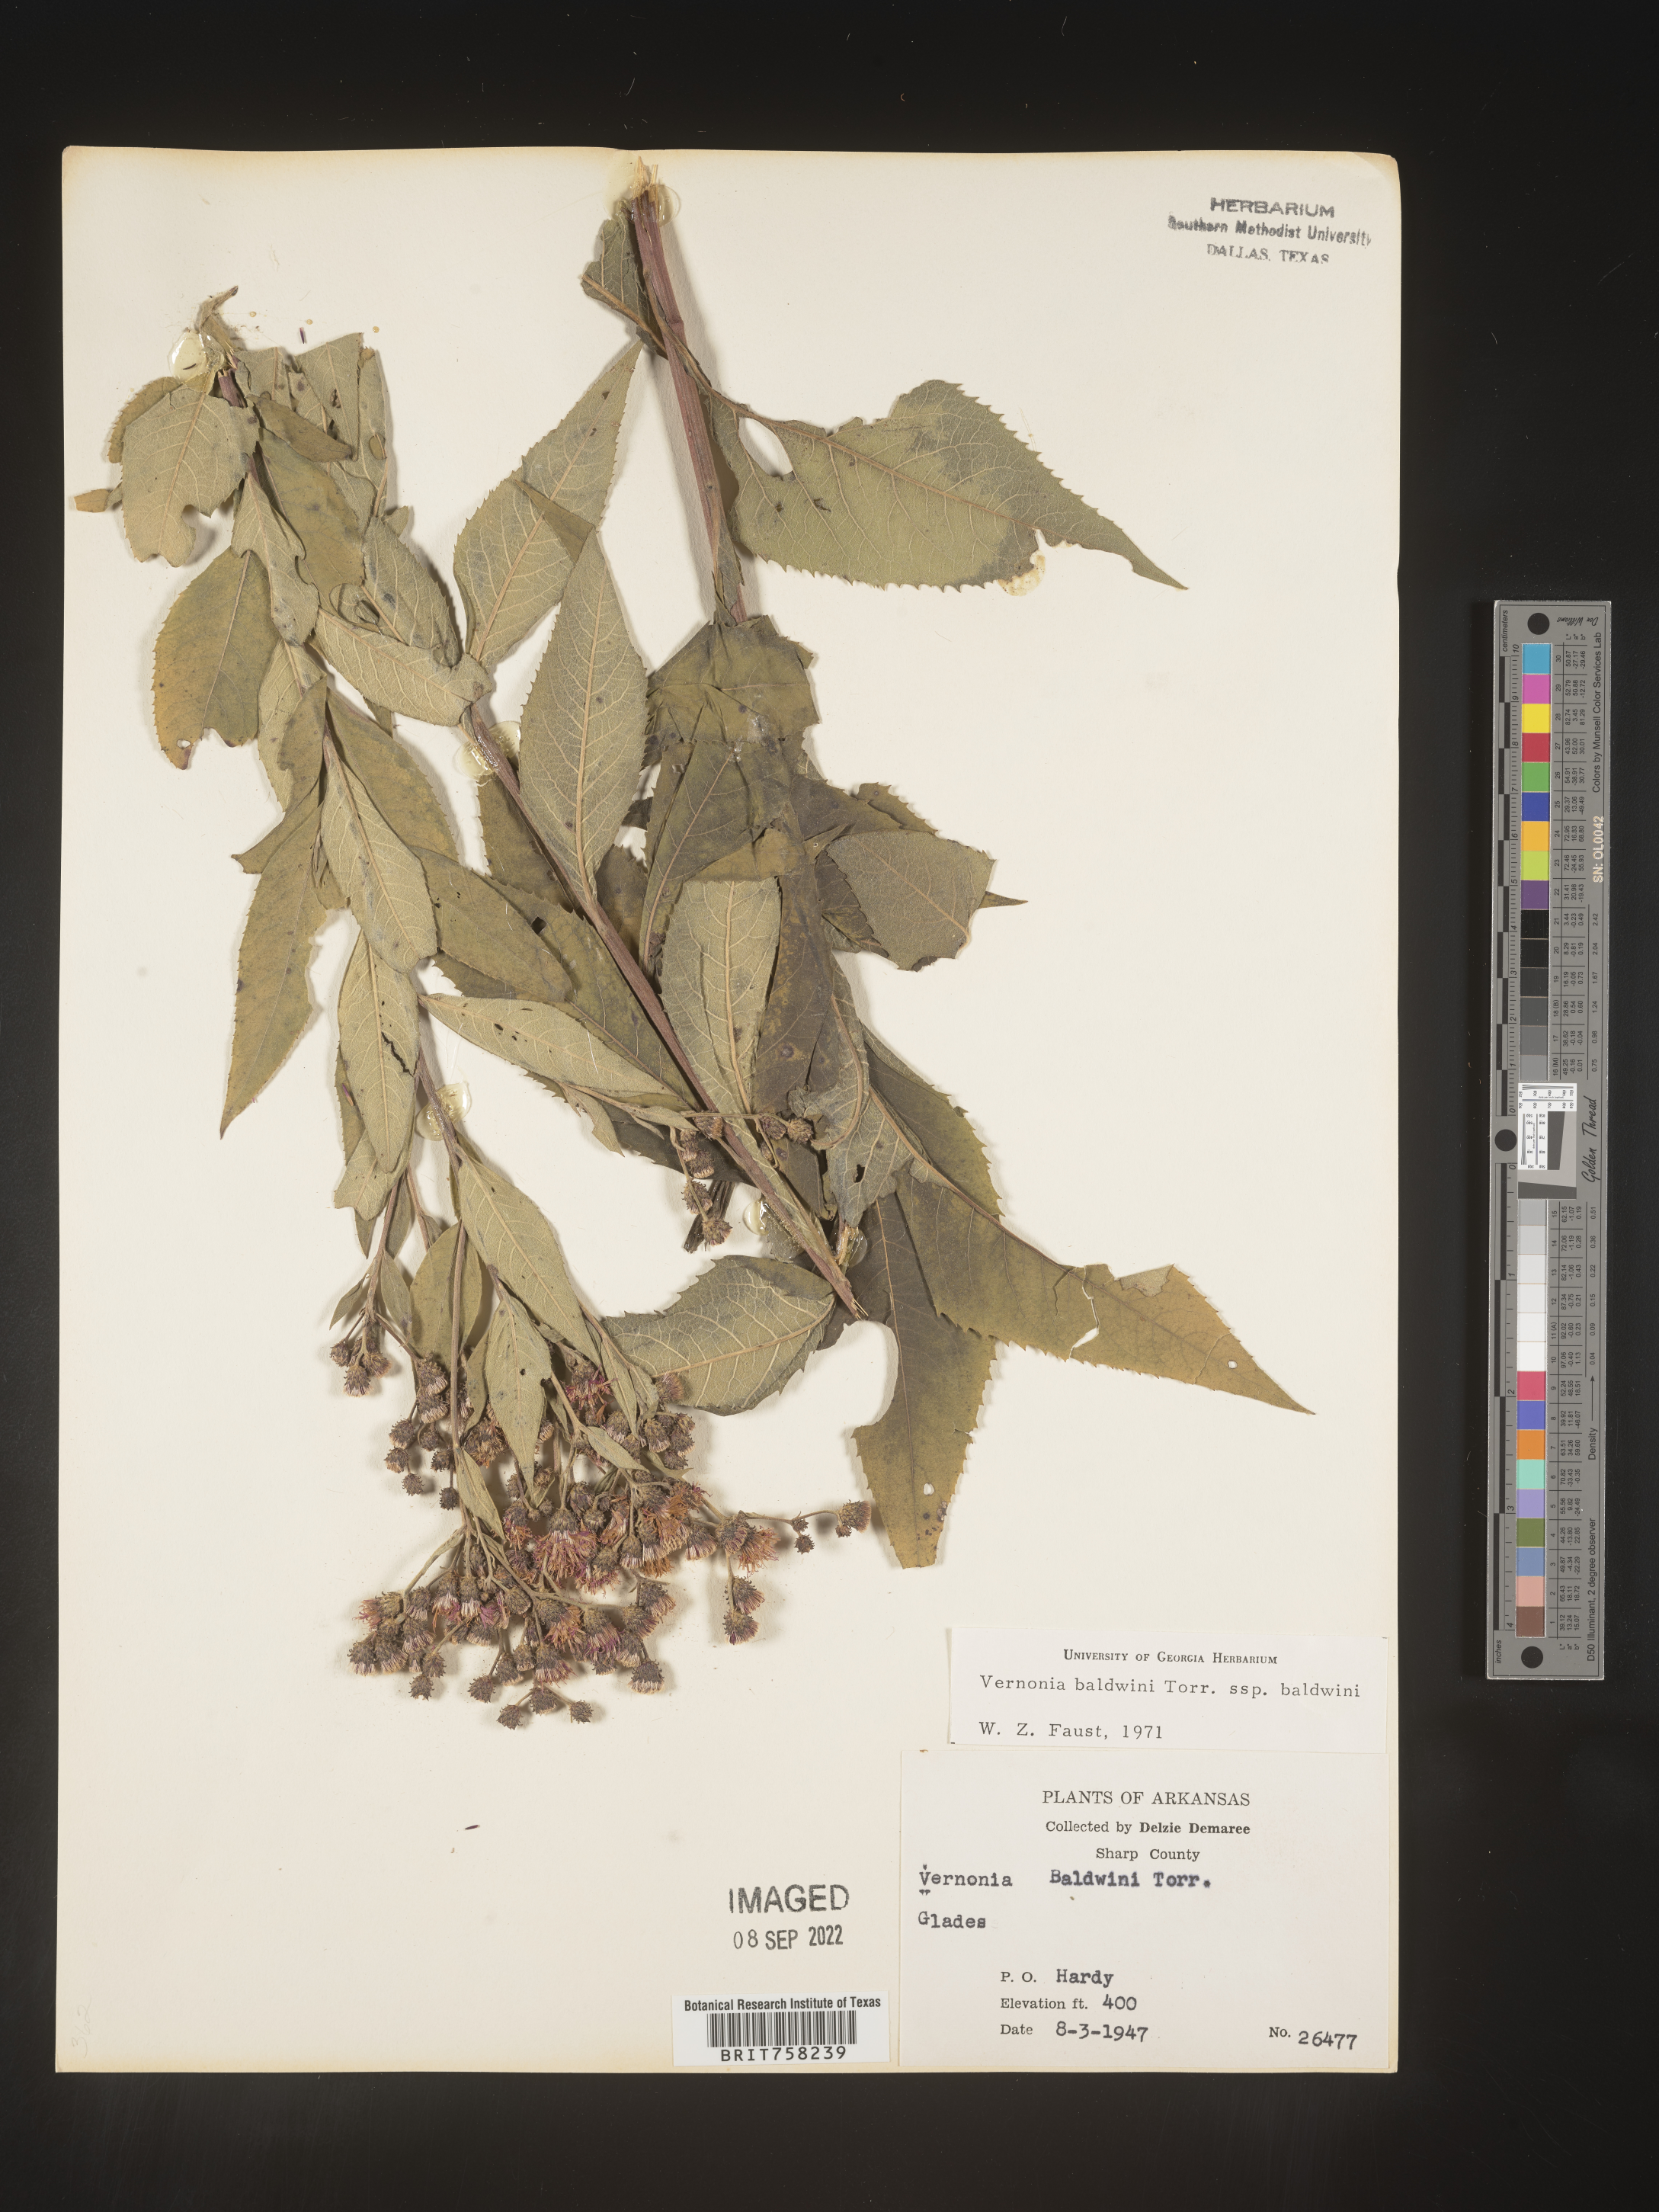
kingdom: Plantae
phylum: Tracheophyta
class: Magnoliopsida
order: Asterales
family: Asteraceae
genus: Vernonia
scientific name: Vernonia baldwinii
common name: Western ironweed
